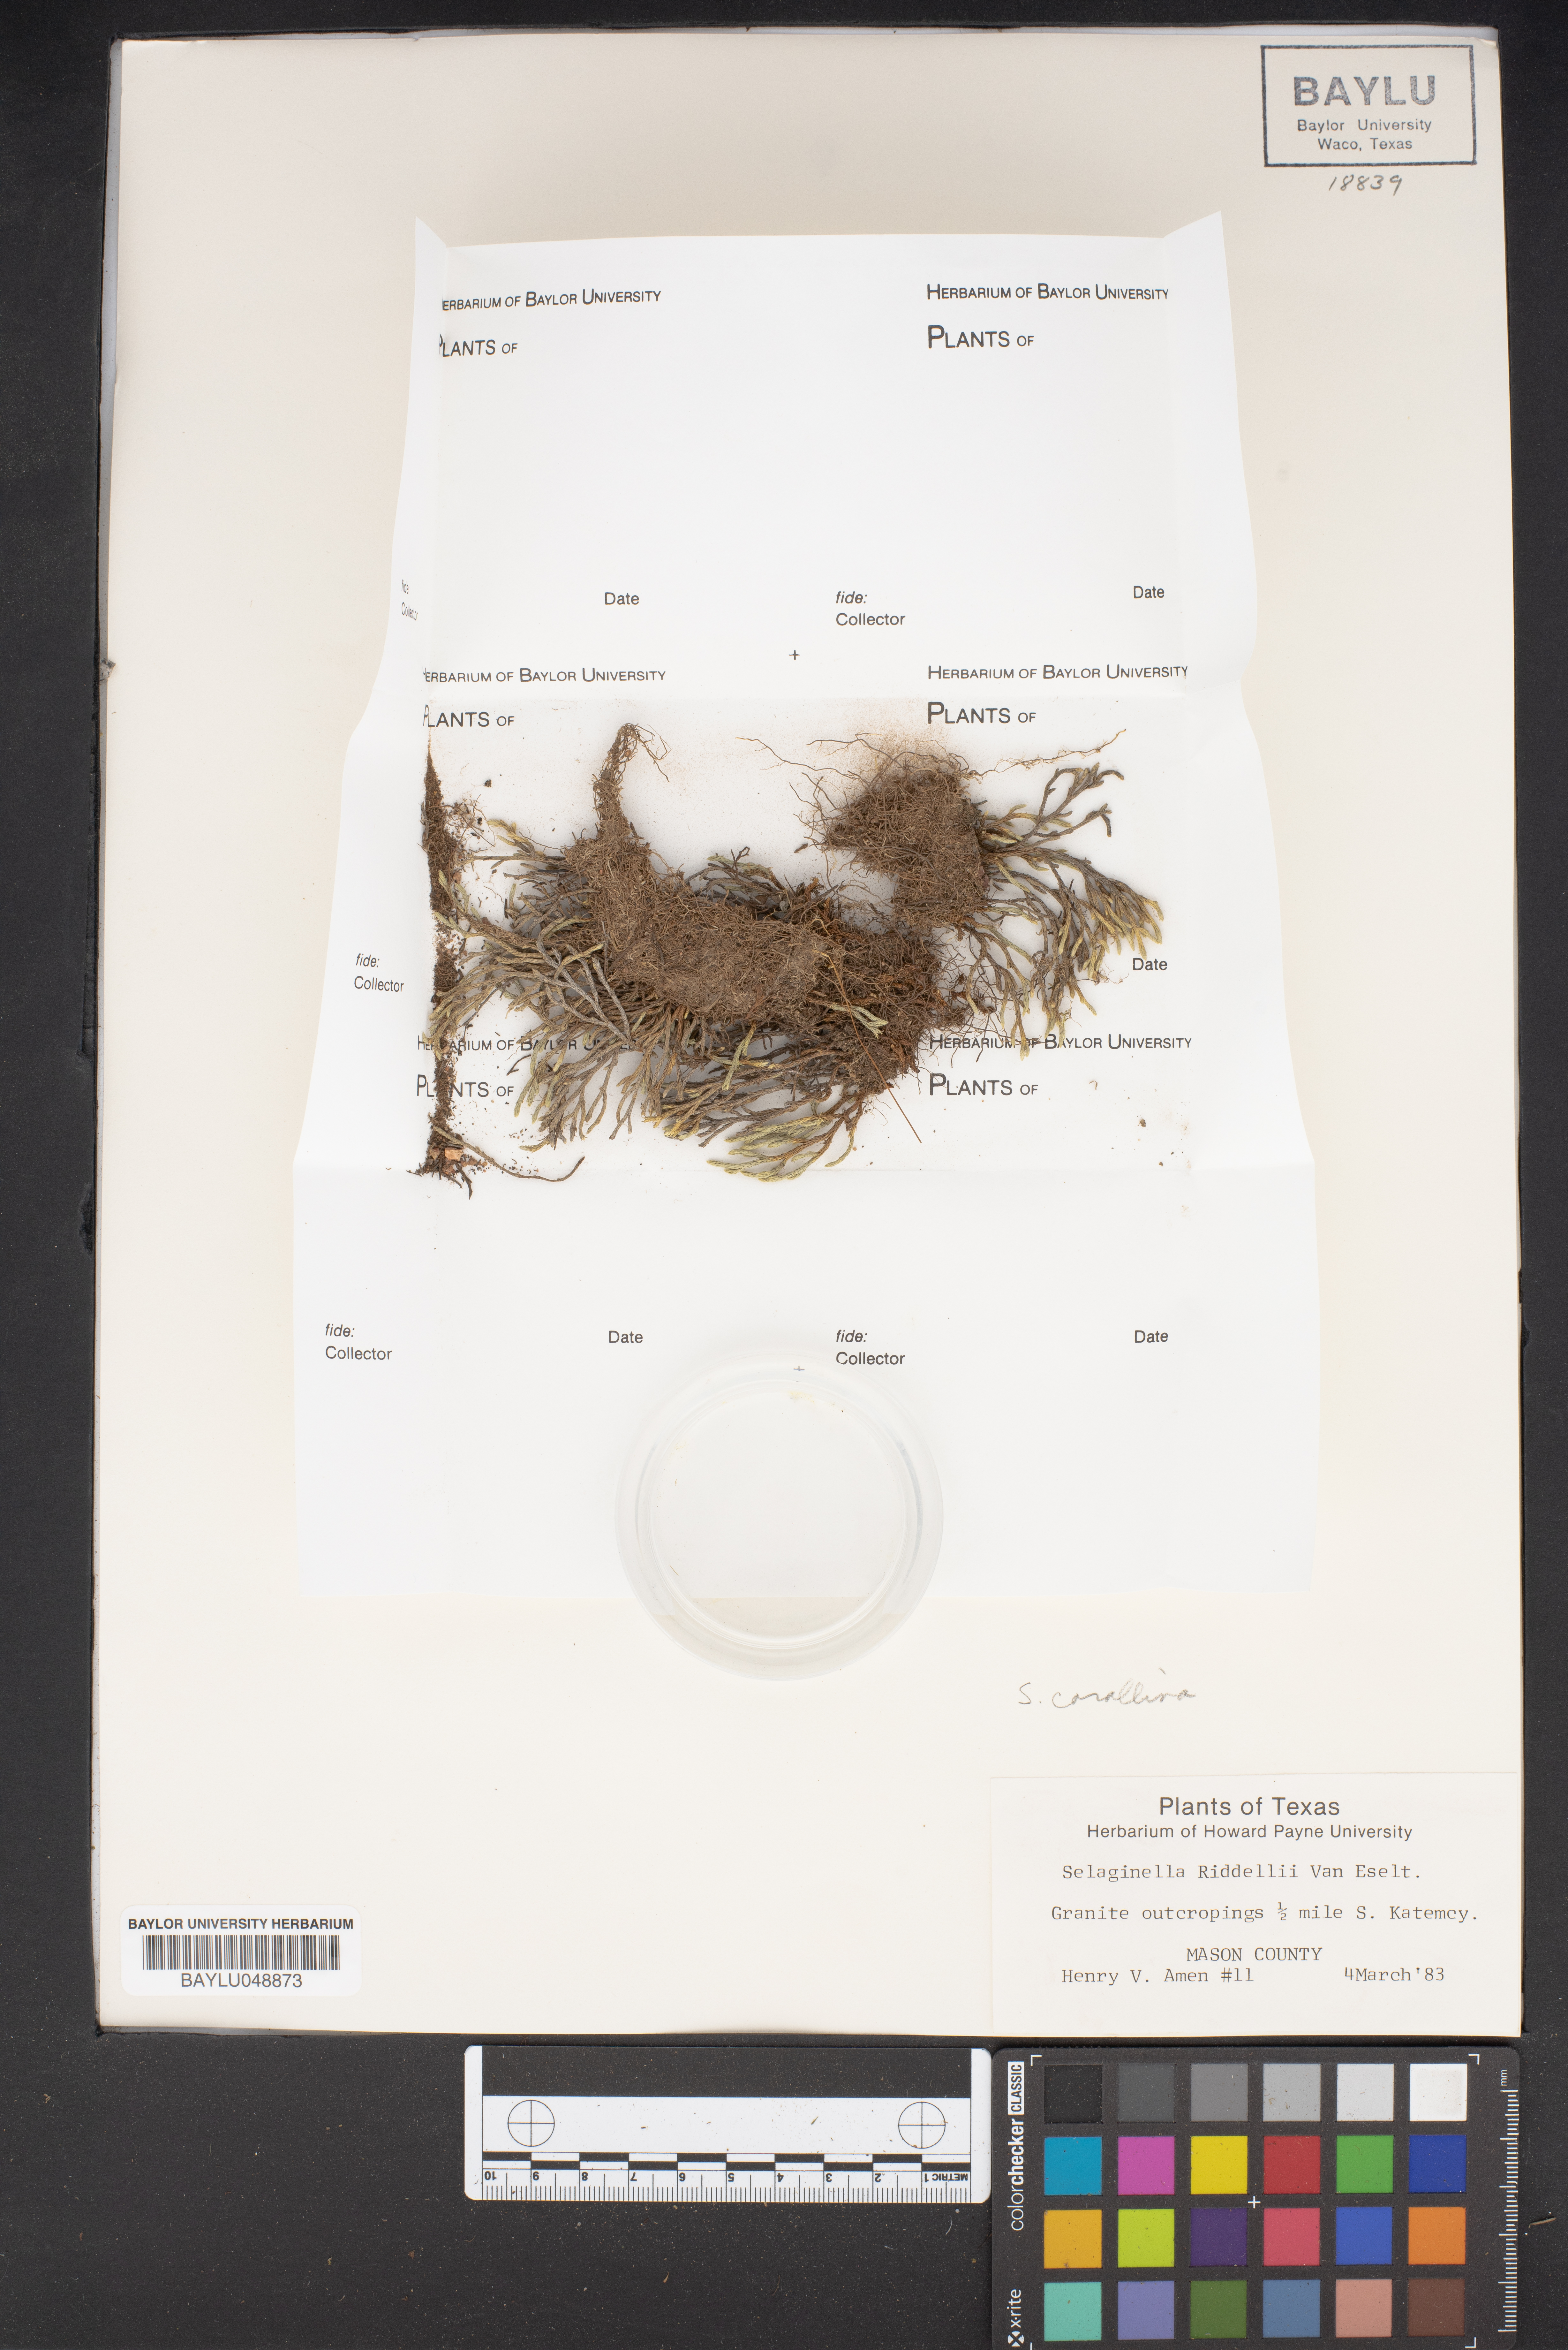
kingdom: Plantae
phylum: Tracheophyta
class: Lycopodiopsida
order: Selaginellales
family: Selaginellaceae
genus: Selaginella
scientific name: Selaginella corallina
